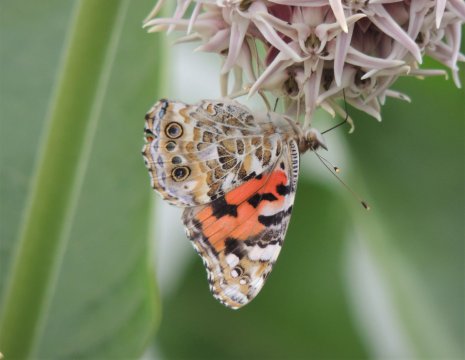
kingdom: Animalia
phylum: Arthropoda
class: Insecta
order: Lepidoptera
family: Nymphalidae
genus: Vanessa
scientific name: Vanessa cardui
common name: Painted Lady
